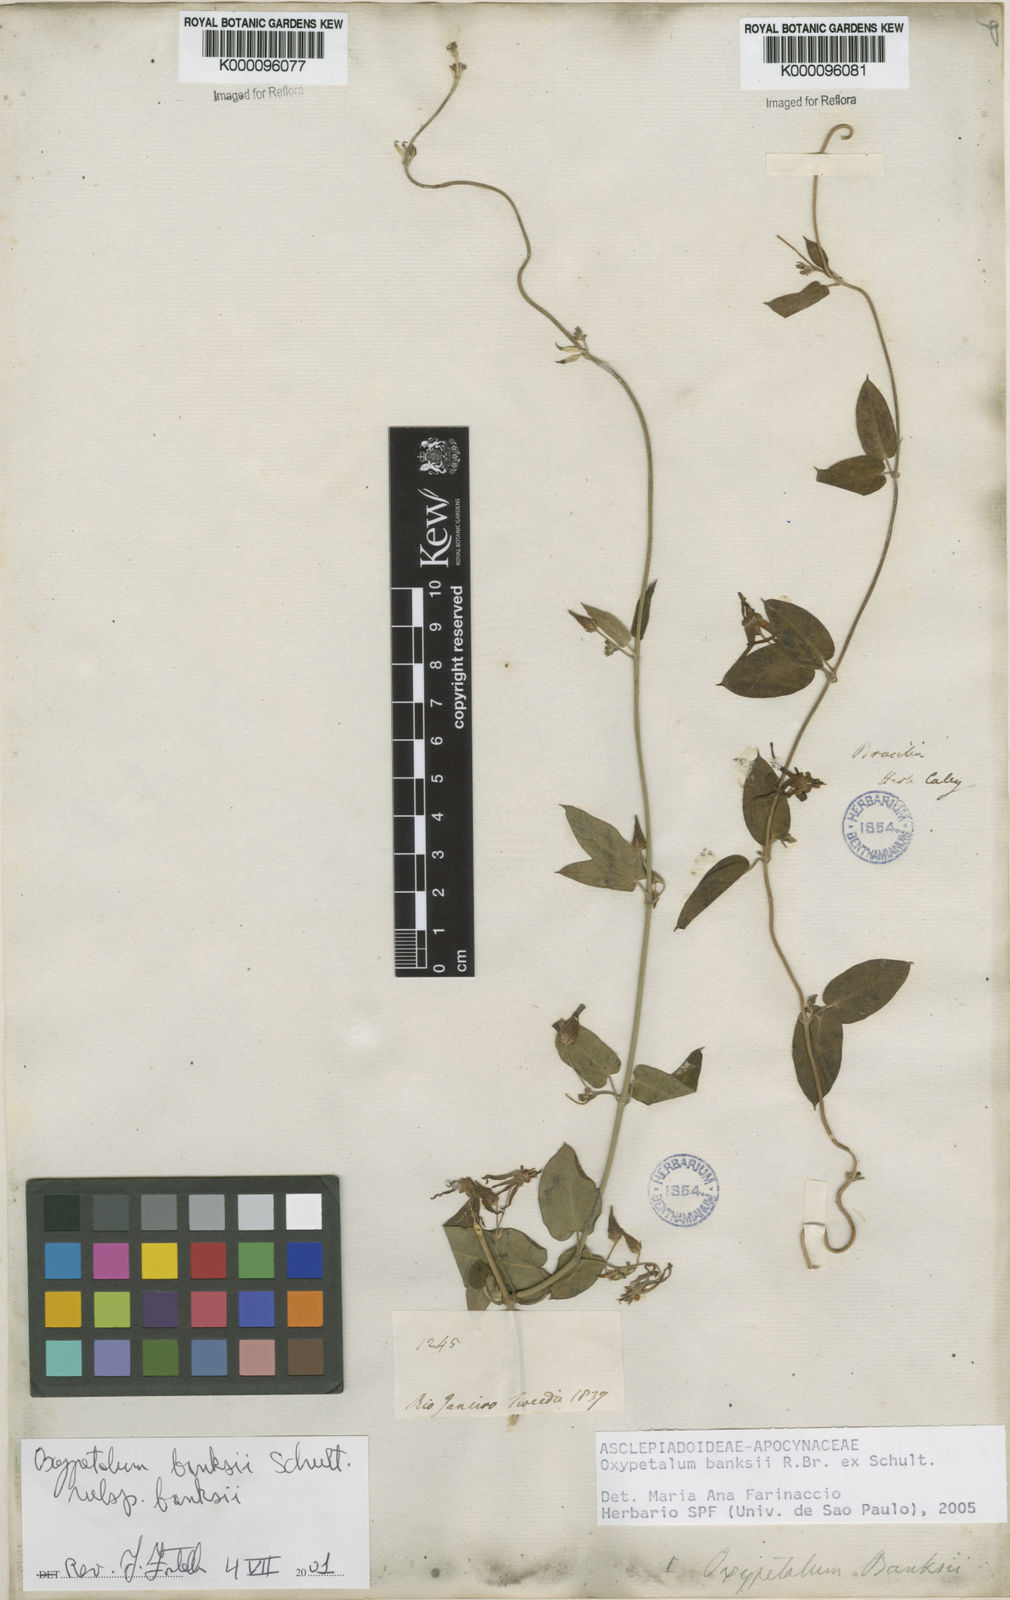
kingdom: Plantae
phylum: Tracheophyta
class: Magnoliopsida
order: Gentianales
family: Apocynaceae
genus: Oxypetalum
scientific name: Oxypetalum banksii
